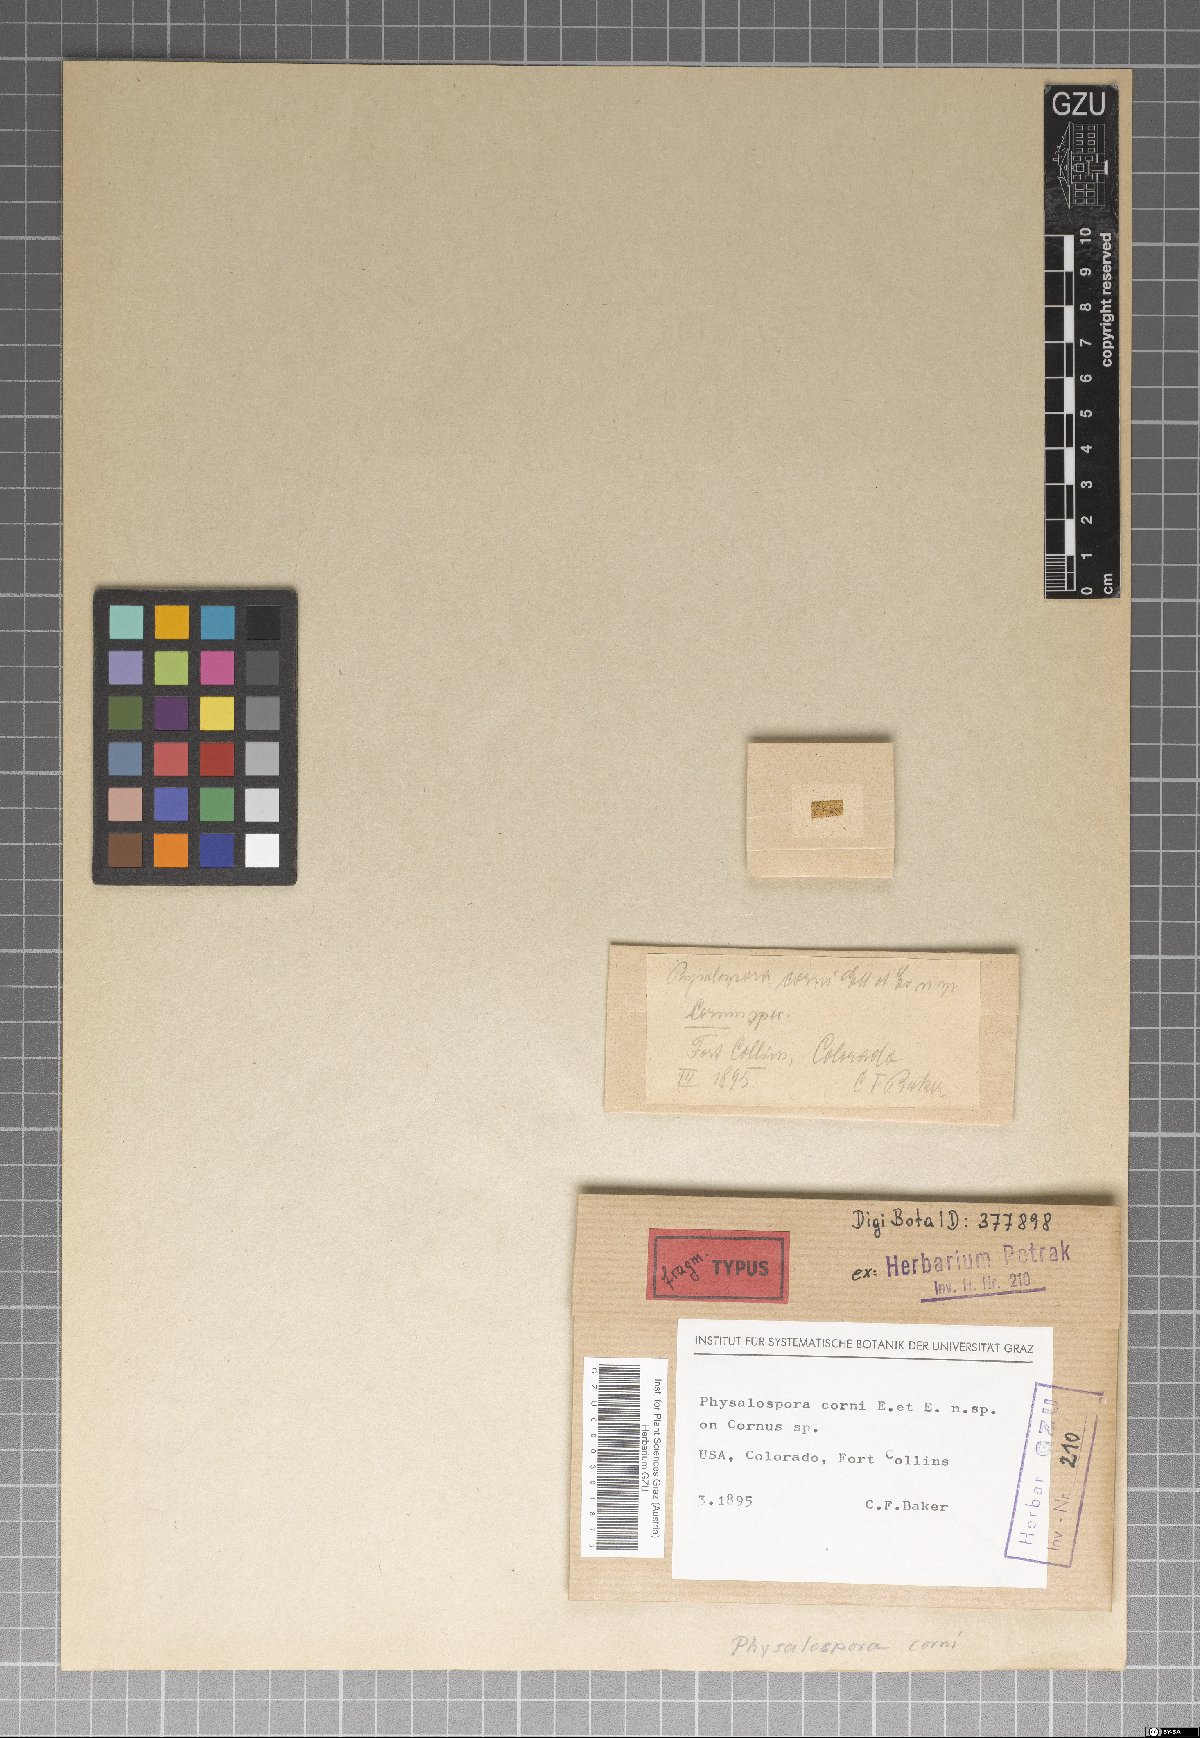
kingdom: Fungi
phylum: Ascomycota
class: Sordariomycetes
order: Xylariales
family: Hyponectriaceae
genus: Physalospora
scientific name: Physalospora corni
